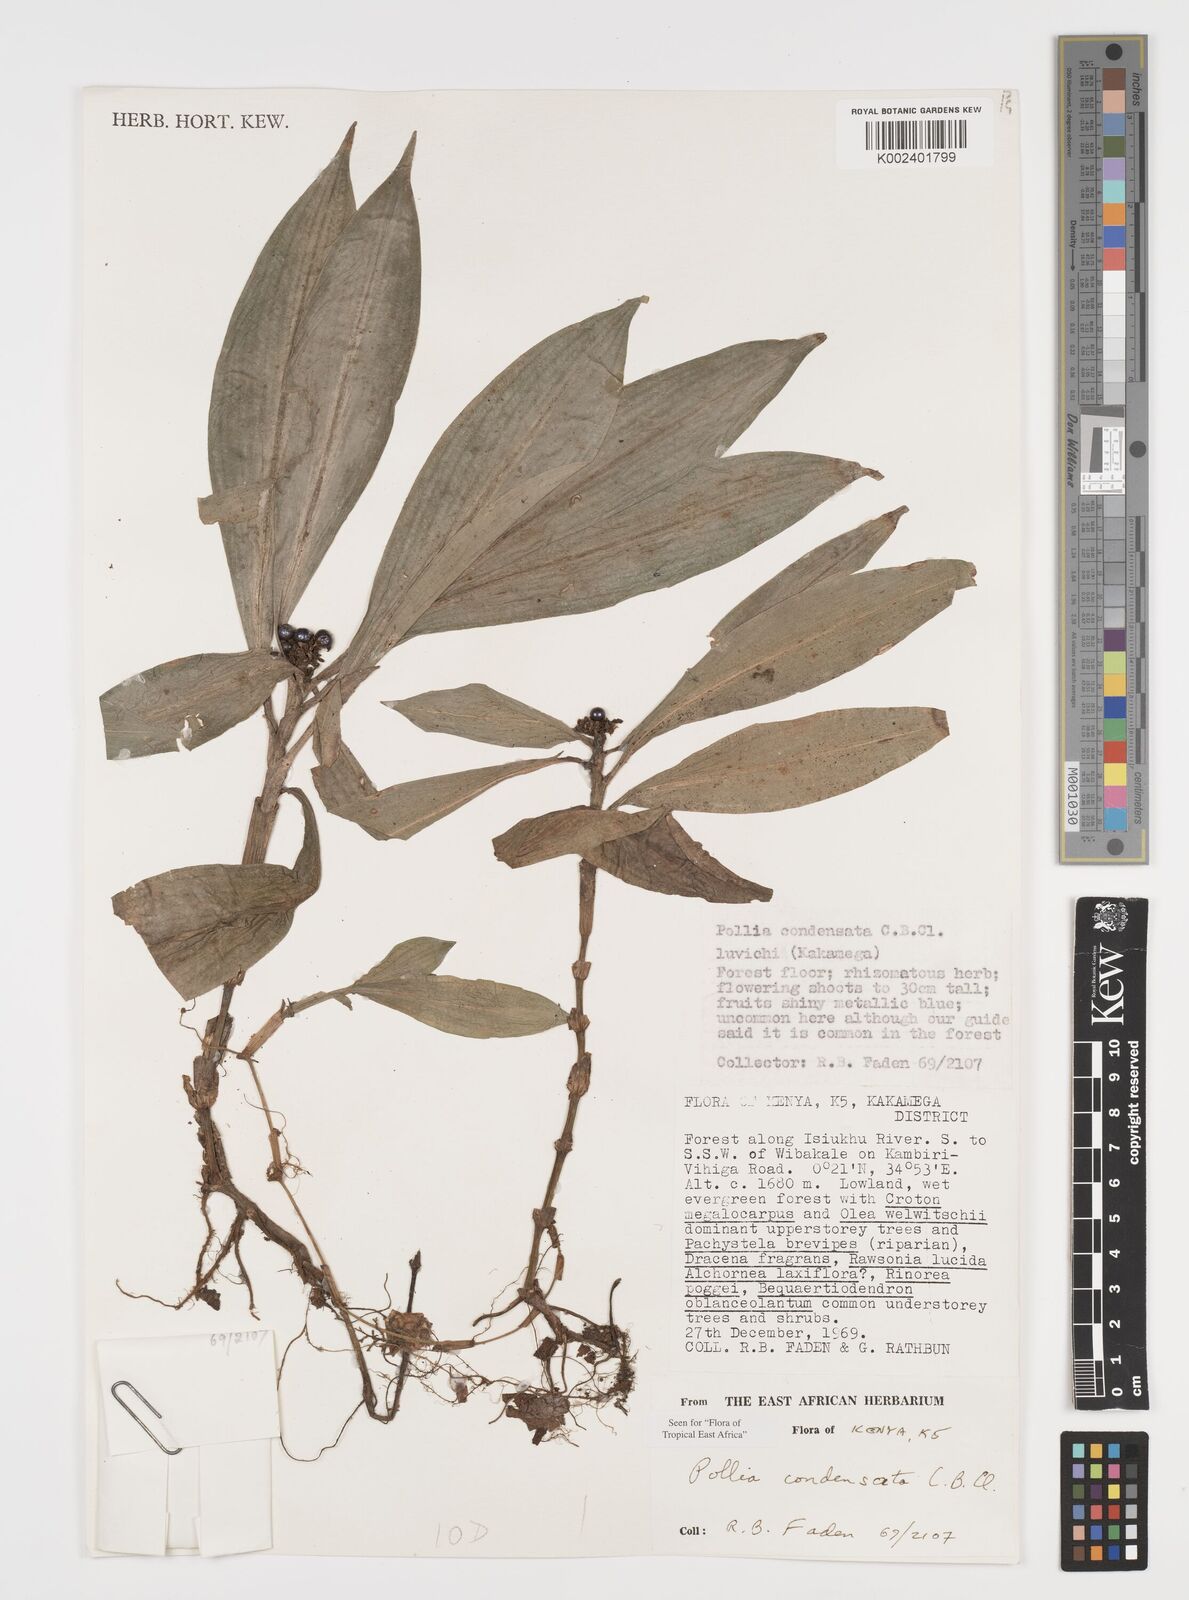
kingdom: Plantae
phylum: Tracheophyta
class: Liliopsida
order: Commelinales
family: Commelinaceae
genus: Pollia
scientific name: Pollia condensata
